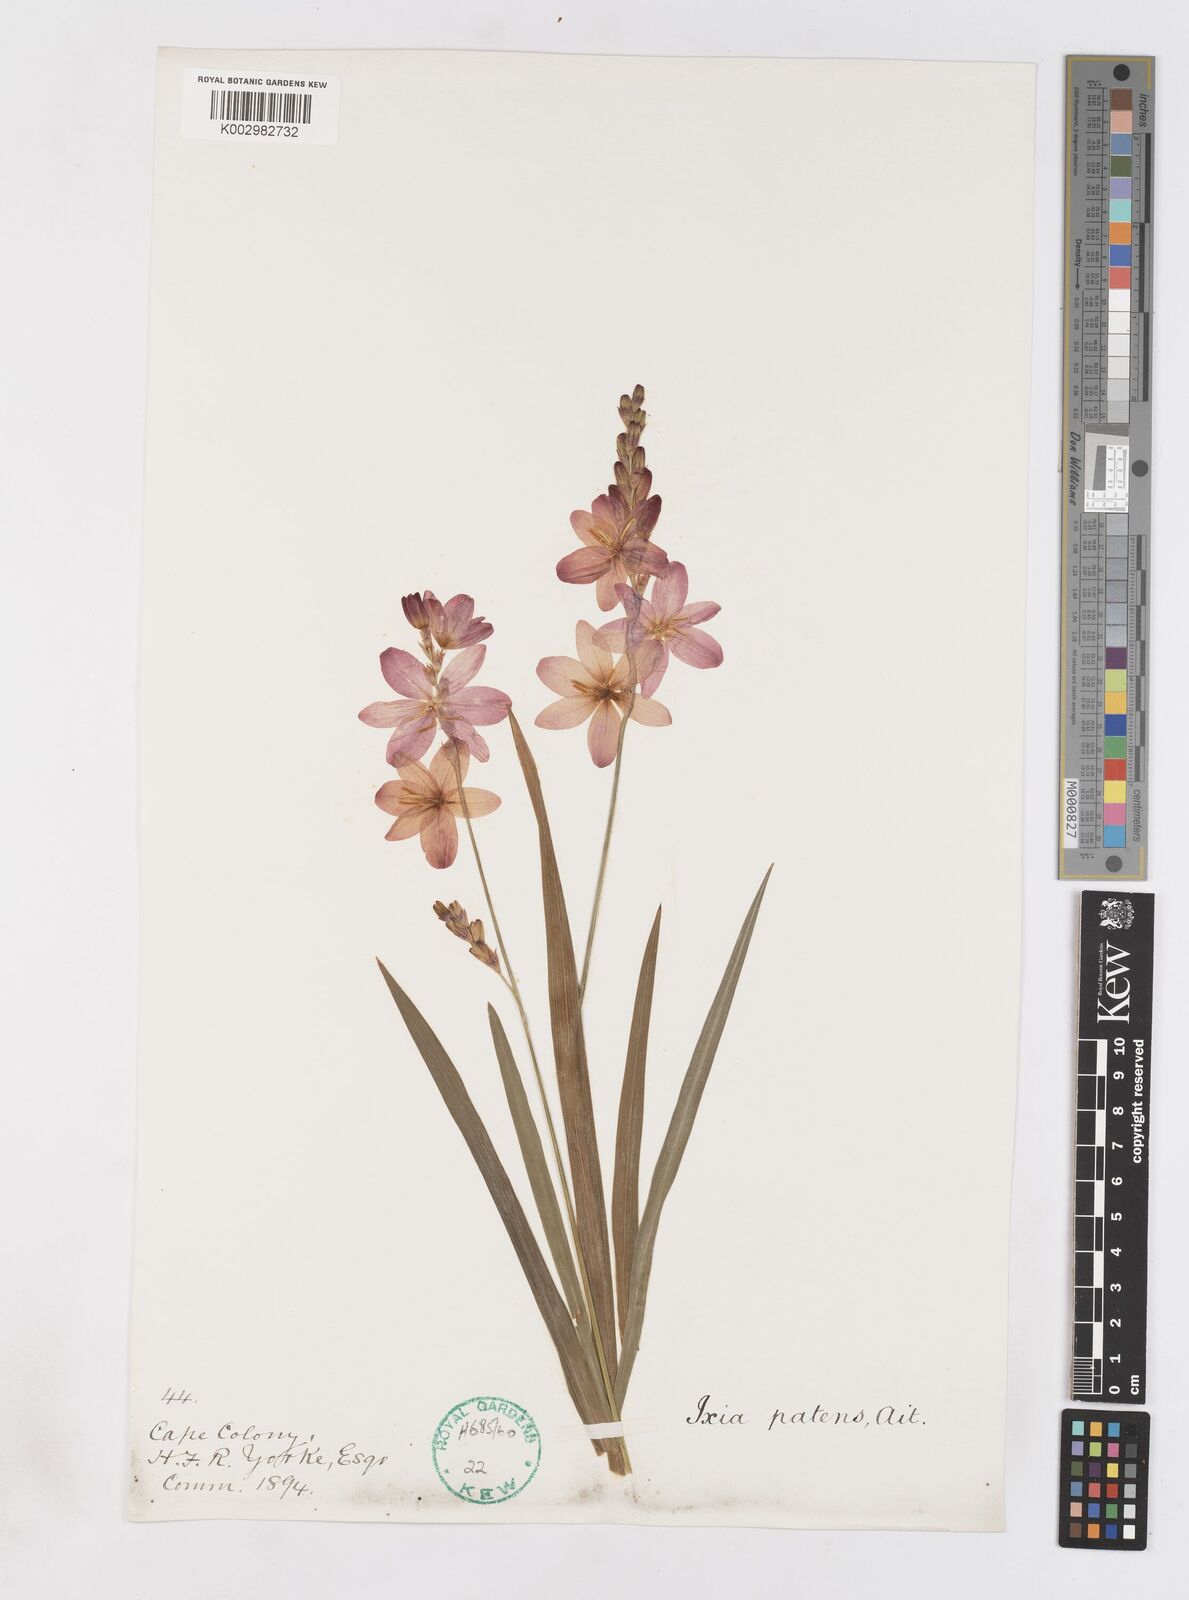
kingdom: Plantae
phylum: Tracheophyta
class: Liliopsida
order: Asparagales
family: Iridaceae
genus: Ixia
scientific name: Ixia patens
